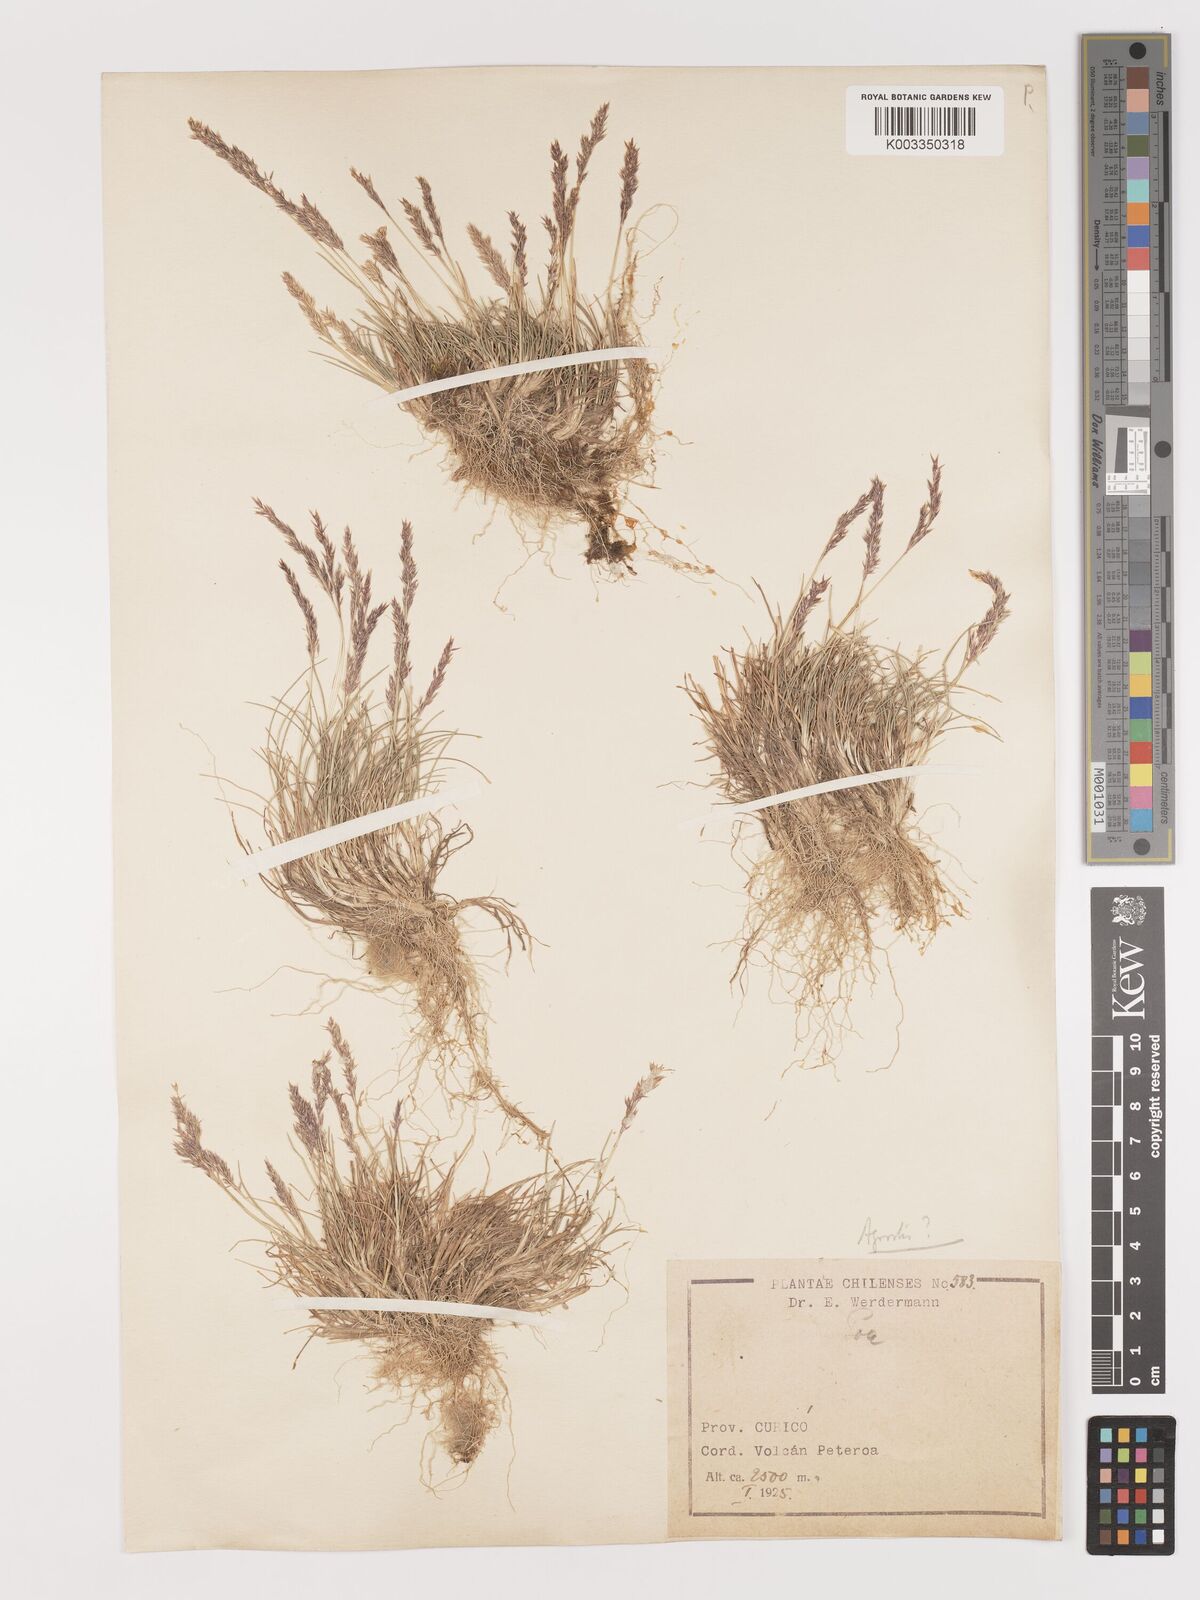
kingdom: Plantae
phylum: Tracheophyta
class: Liliopsida
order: Poales
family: Poaceae
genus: Agrostis
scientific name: Agrostis
